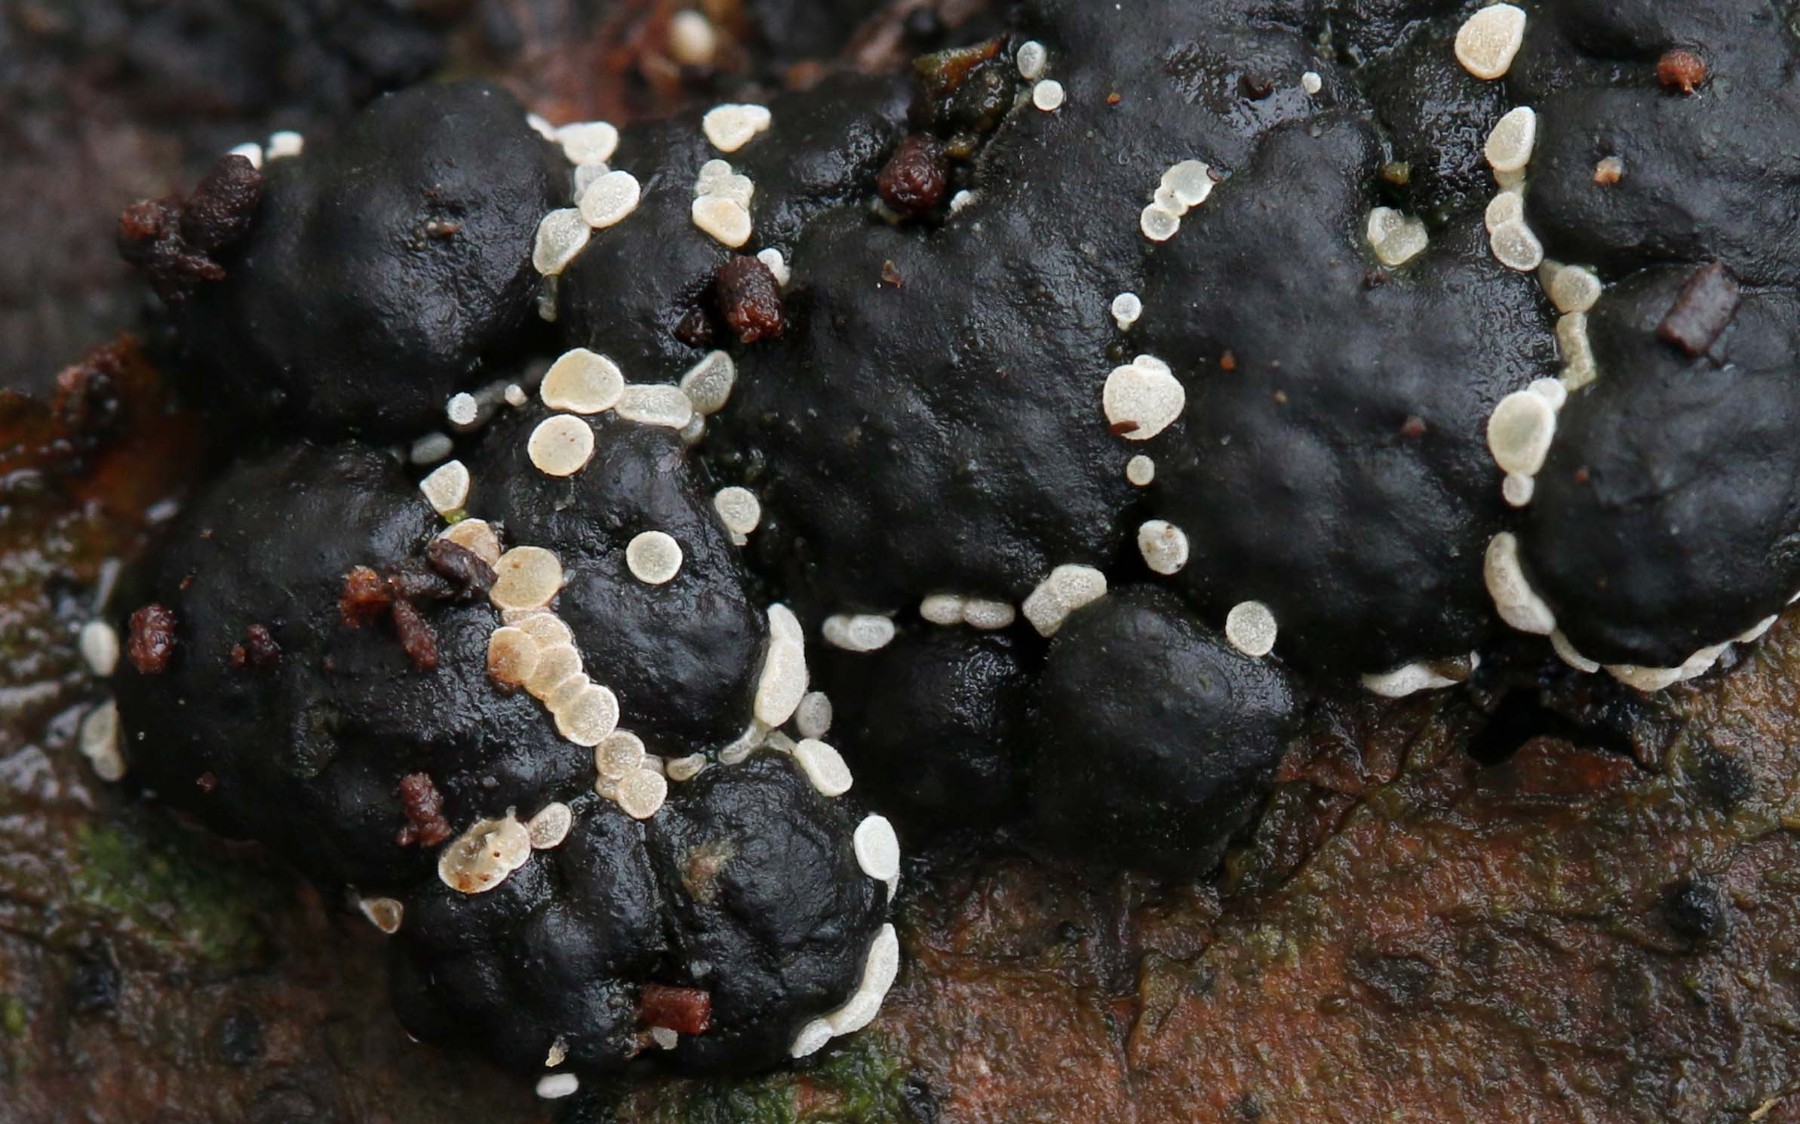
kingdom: Fungi
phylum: Ascomycota
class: Leotiomycetes
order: Helotiales
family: Hyaloscyphaceae
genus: Polydesmia
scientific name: Polydesmia pruinosa
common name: dunskive
